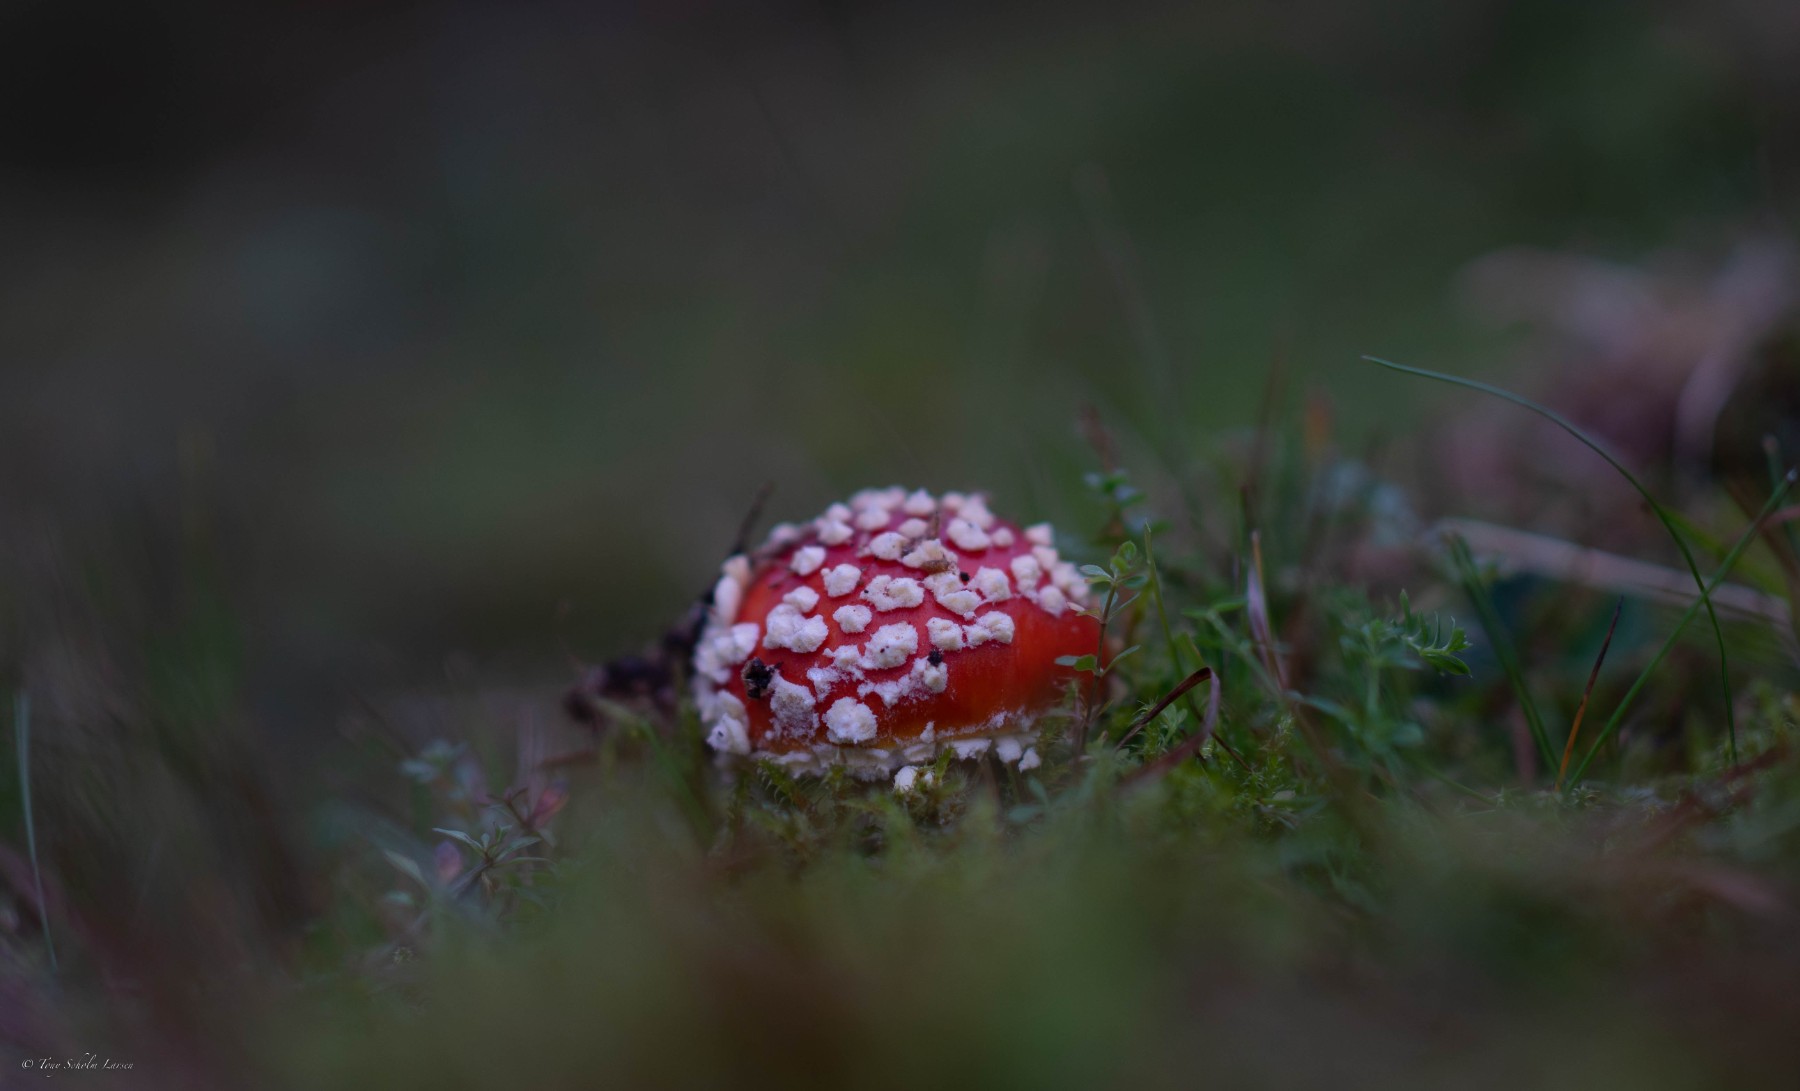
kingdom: Fungi
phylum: Basidiomycota
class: Agaricomycetes
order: Agaricales
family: Amanitaceae
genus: Amanita
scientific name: Amanita muscaria
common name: rød fluesvamp
